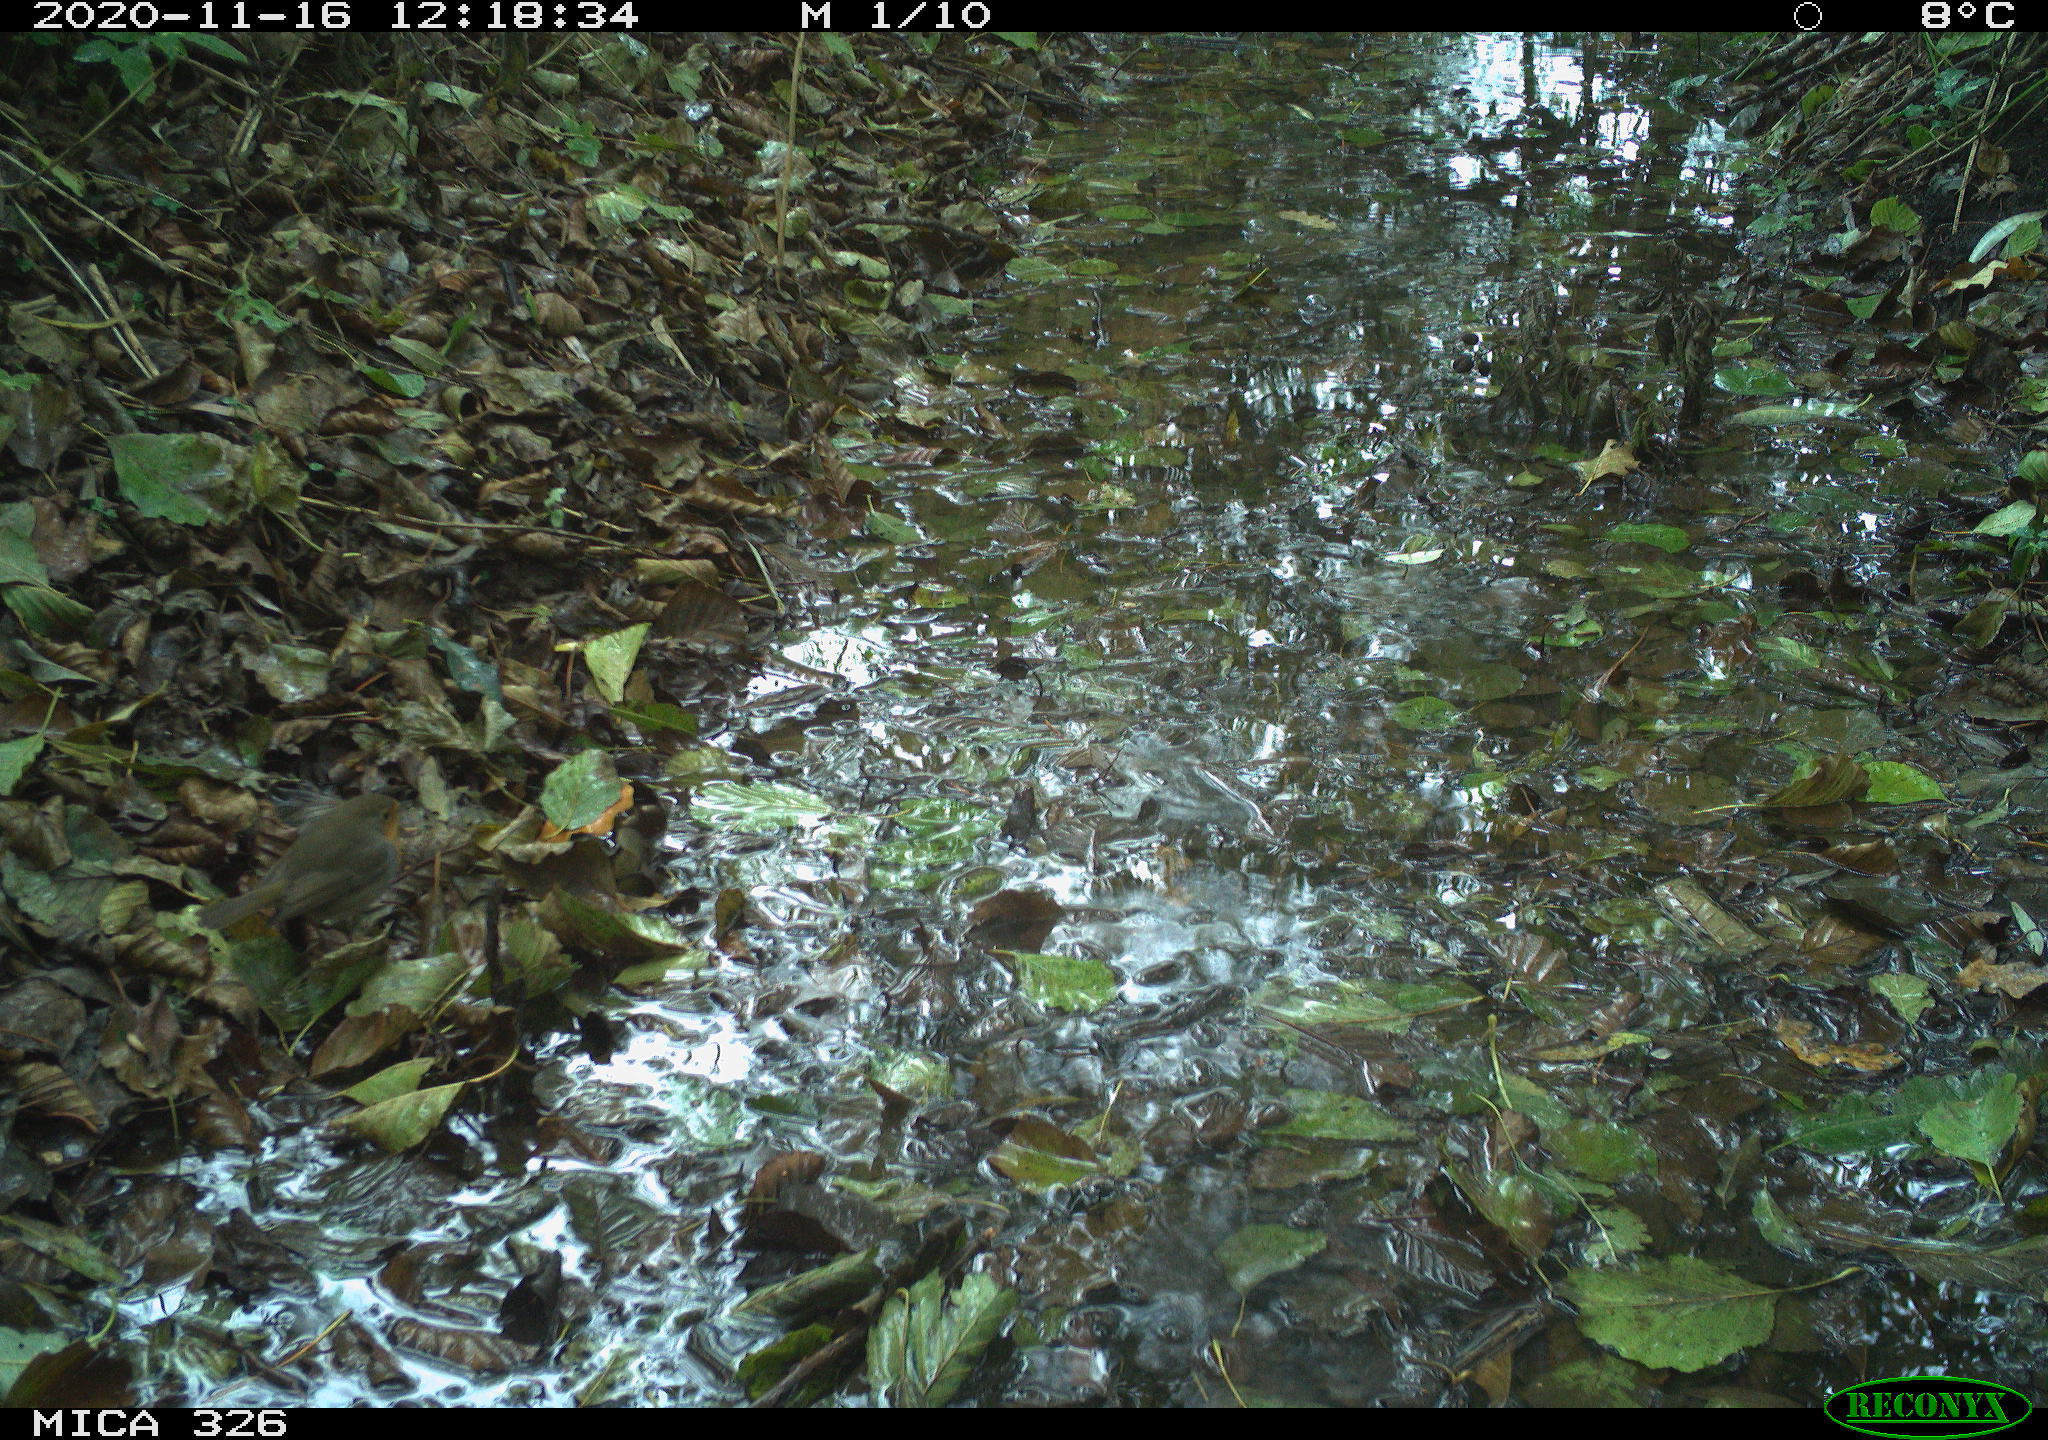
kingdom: Animalia
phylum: Chordata
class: Aves
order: Passeriformes
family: Muscicapidae
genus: Erithacus
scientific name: Erithacus rubecula
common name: European robin
